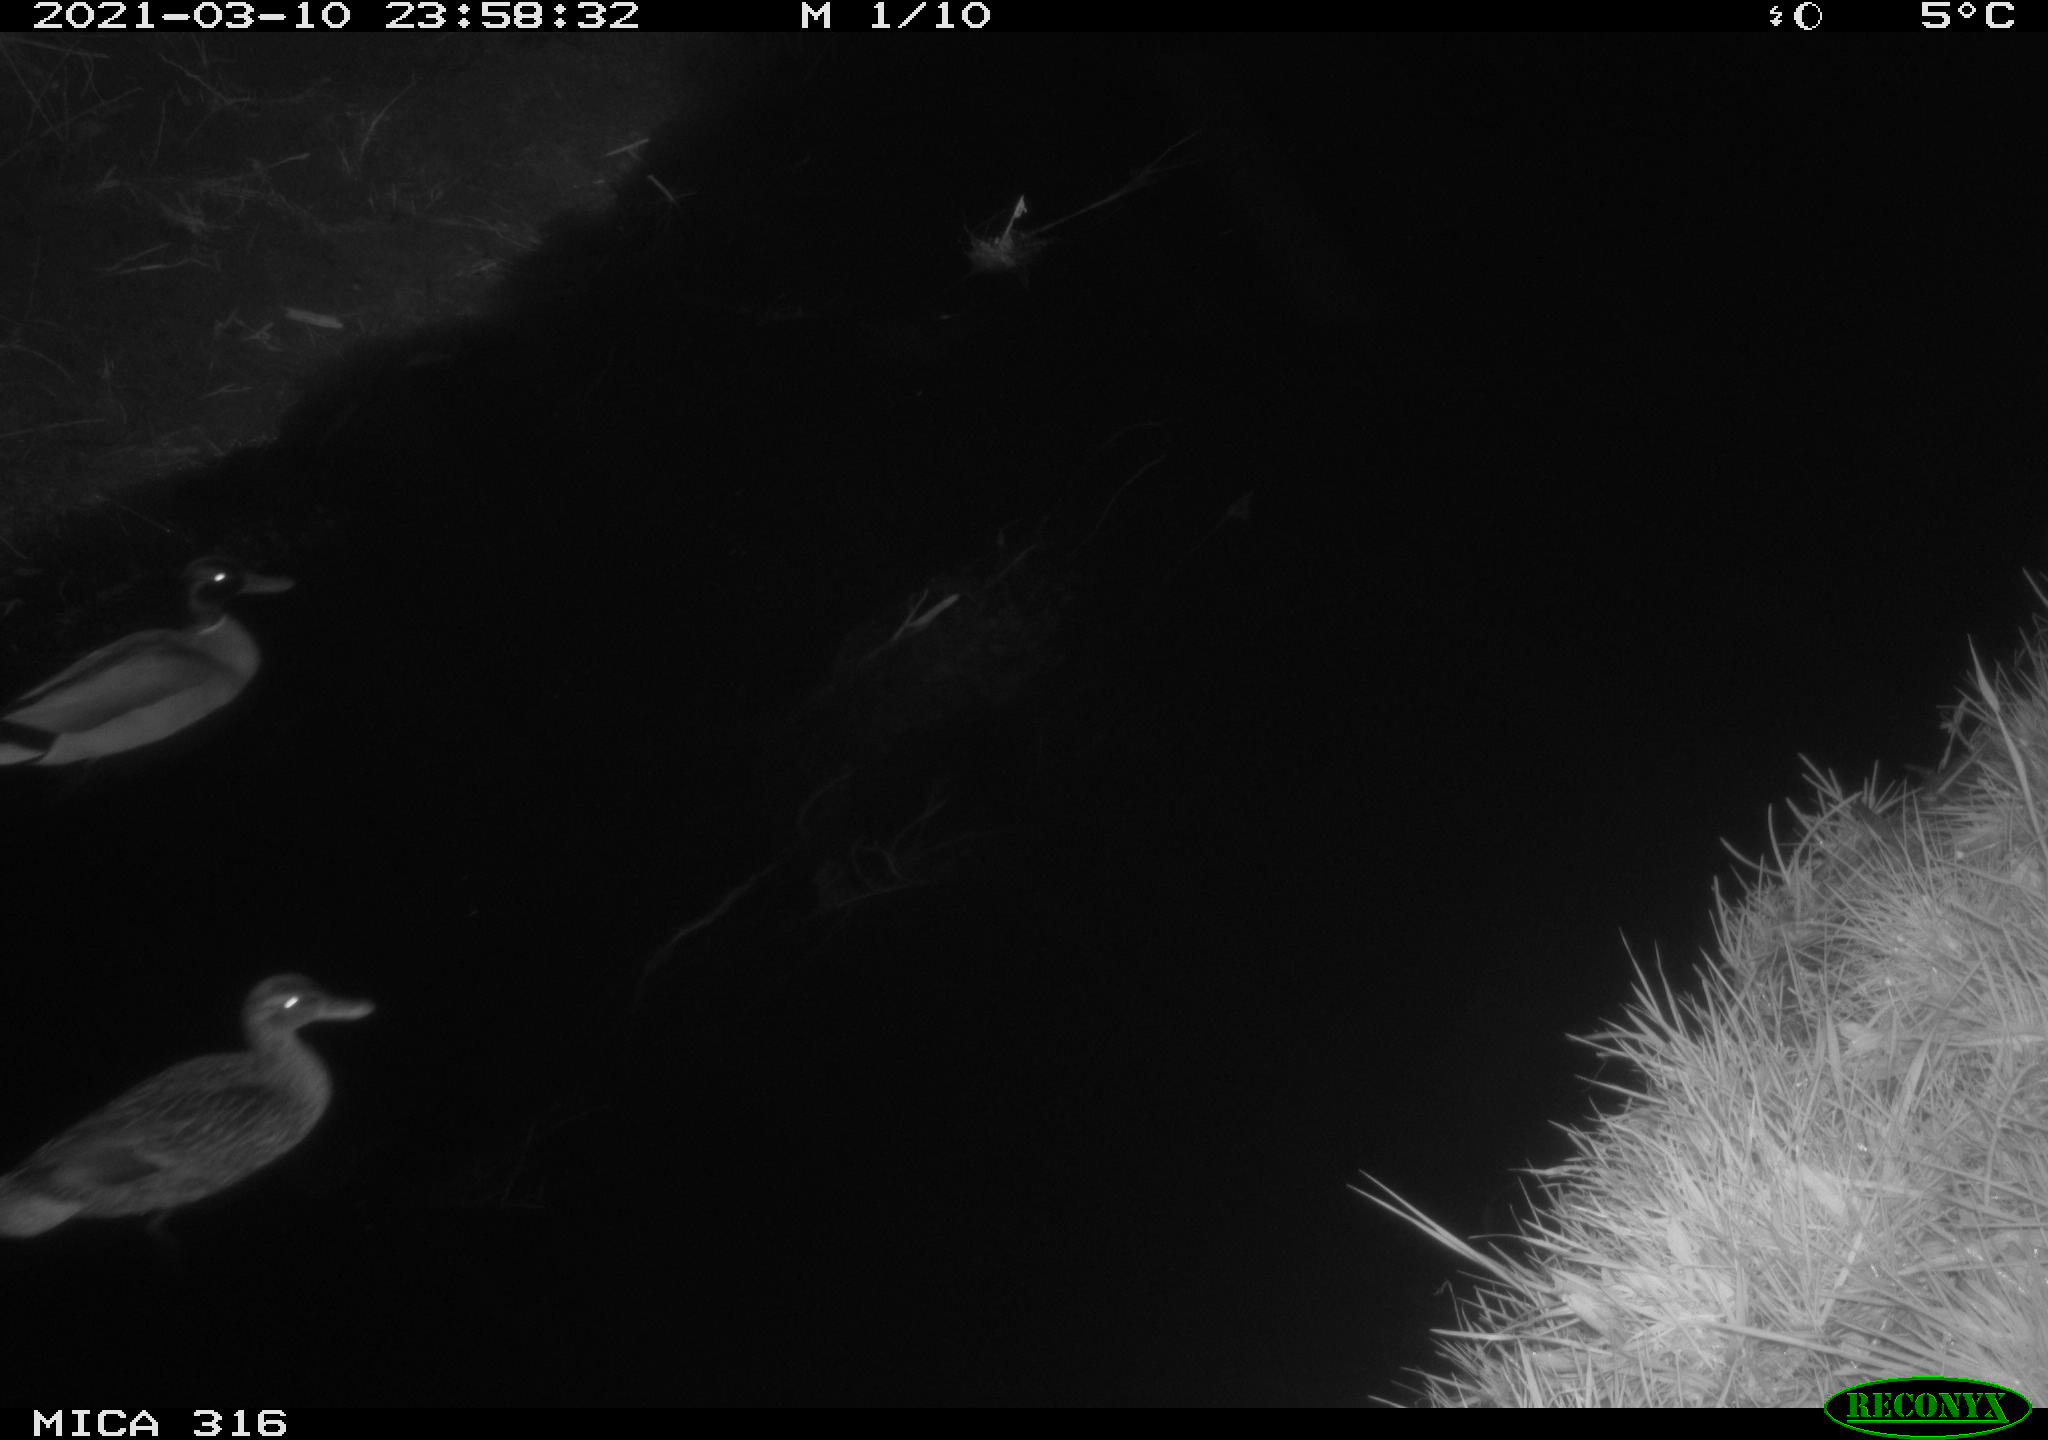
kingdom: Animalia
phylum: Chordata
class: Aves
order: Anseriformes
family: Anatidae
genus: Anas
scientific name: Anas platyrhynchos
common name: Mallard
